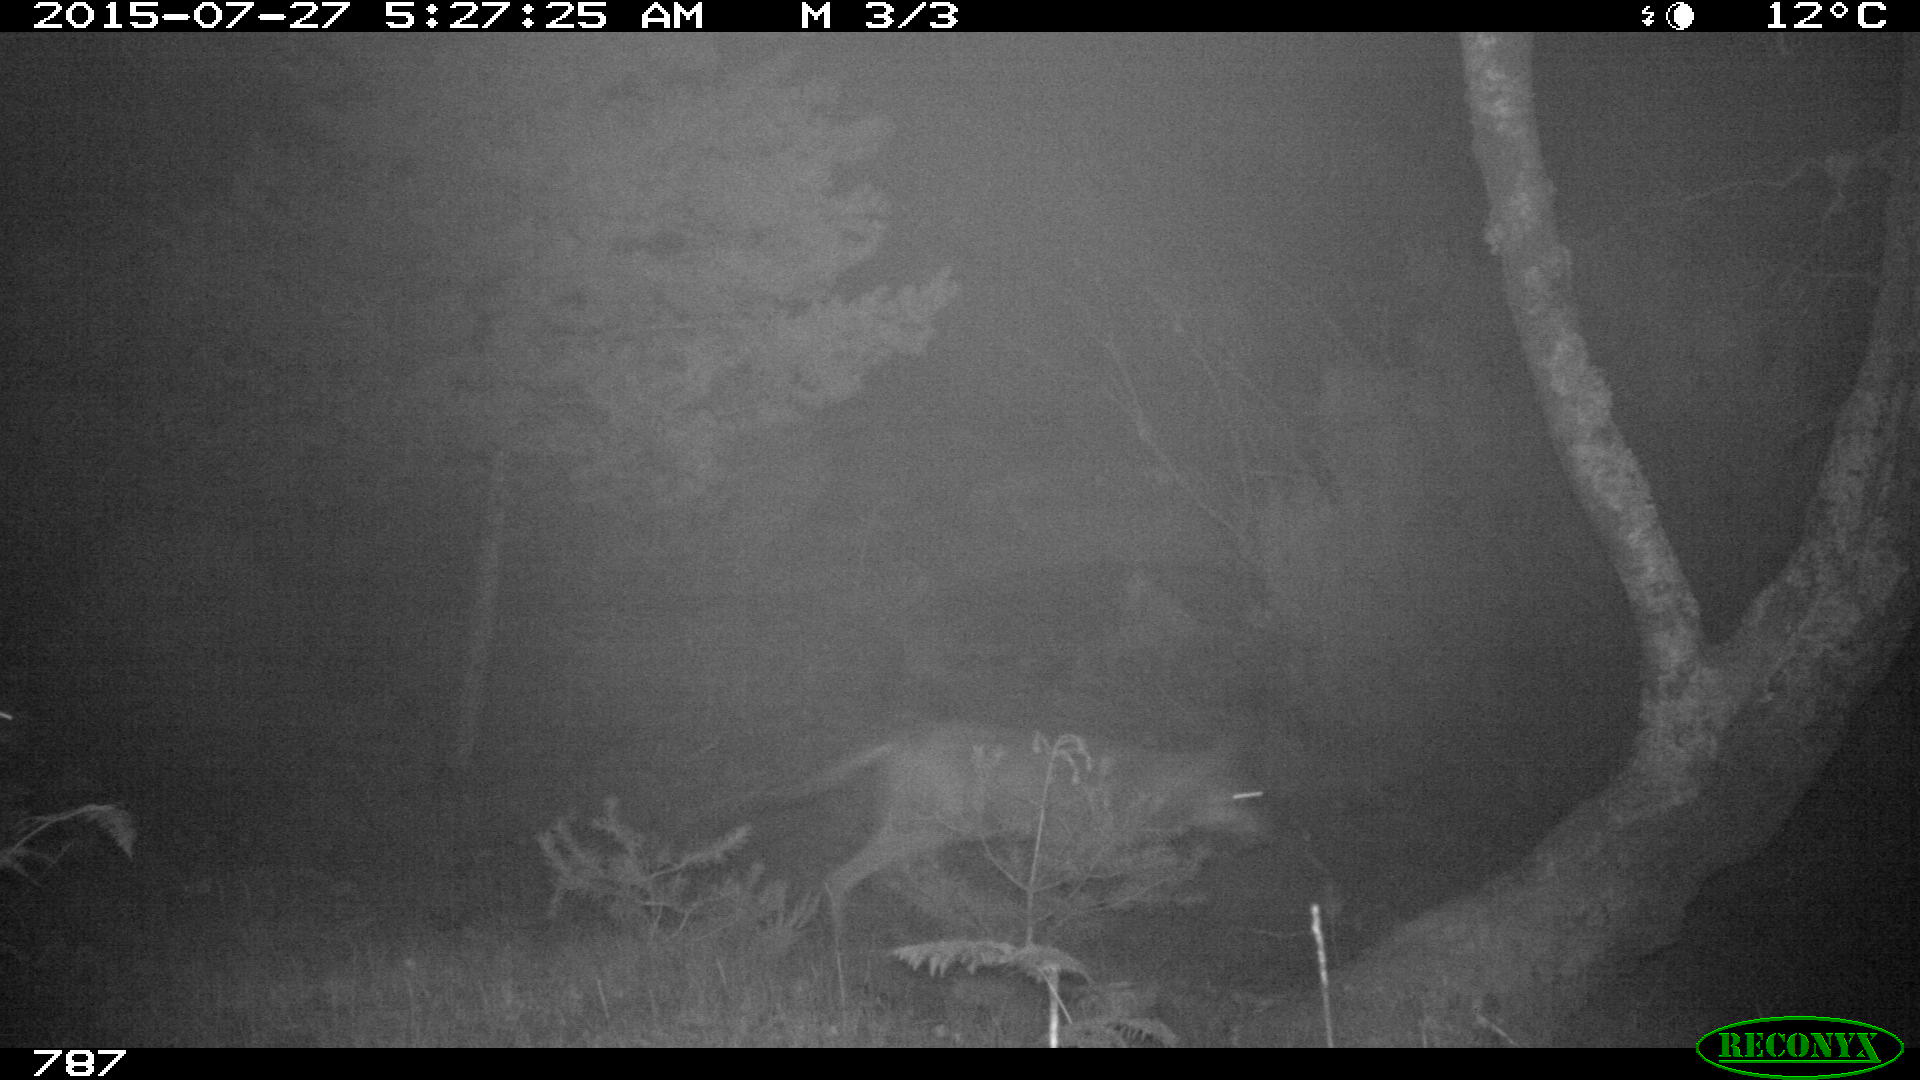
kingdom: Animalia
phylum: Chordata
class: Mammalia
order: Carnivora
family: Canidae
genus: Canis
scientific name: Canis lupus
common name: Gray wolf
